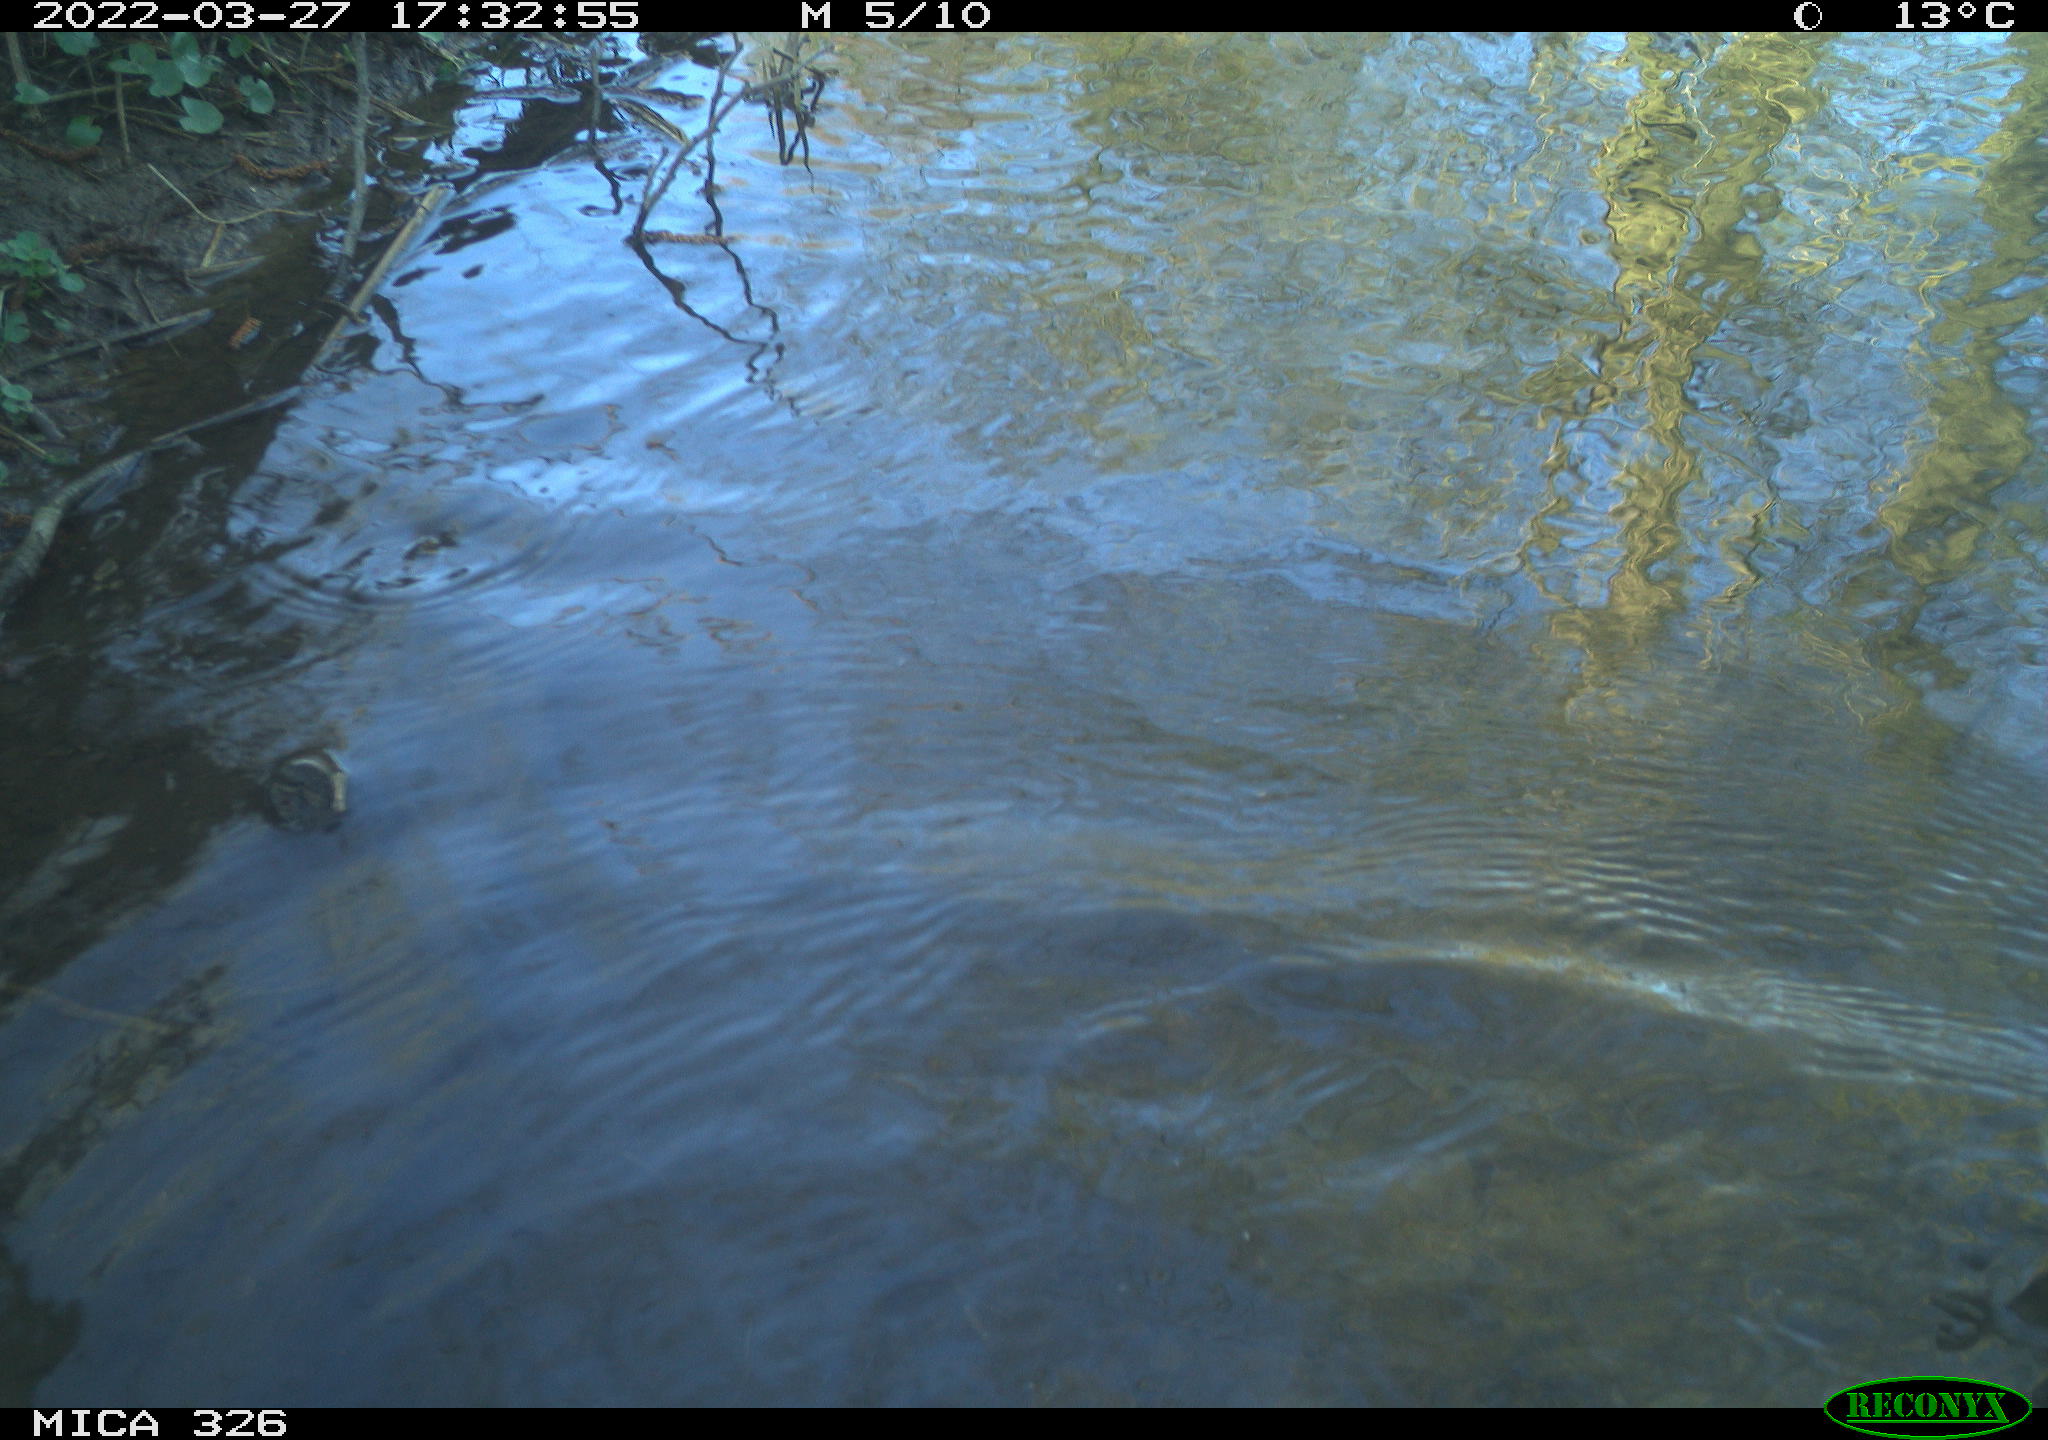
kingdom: Animalia
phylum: Chordata
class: Aves
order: Gruiformes
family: Rallidae
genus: Gallinula
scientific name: Gallinula chloropus
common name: Common moorhen
